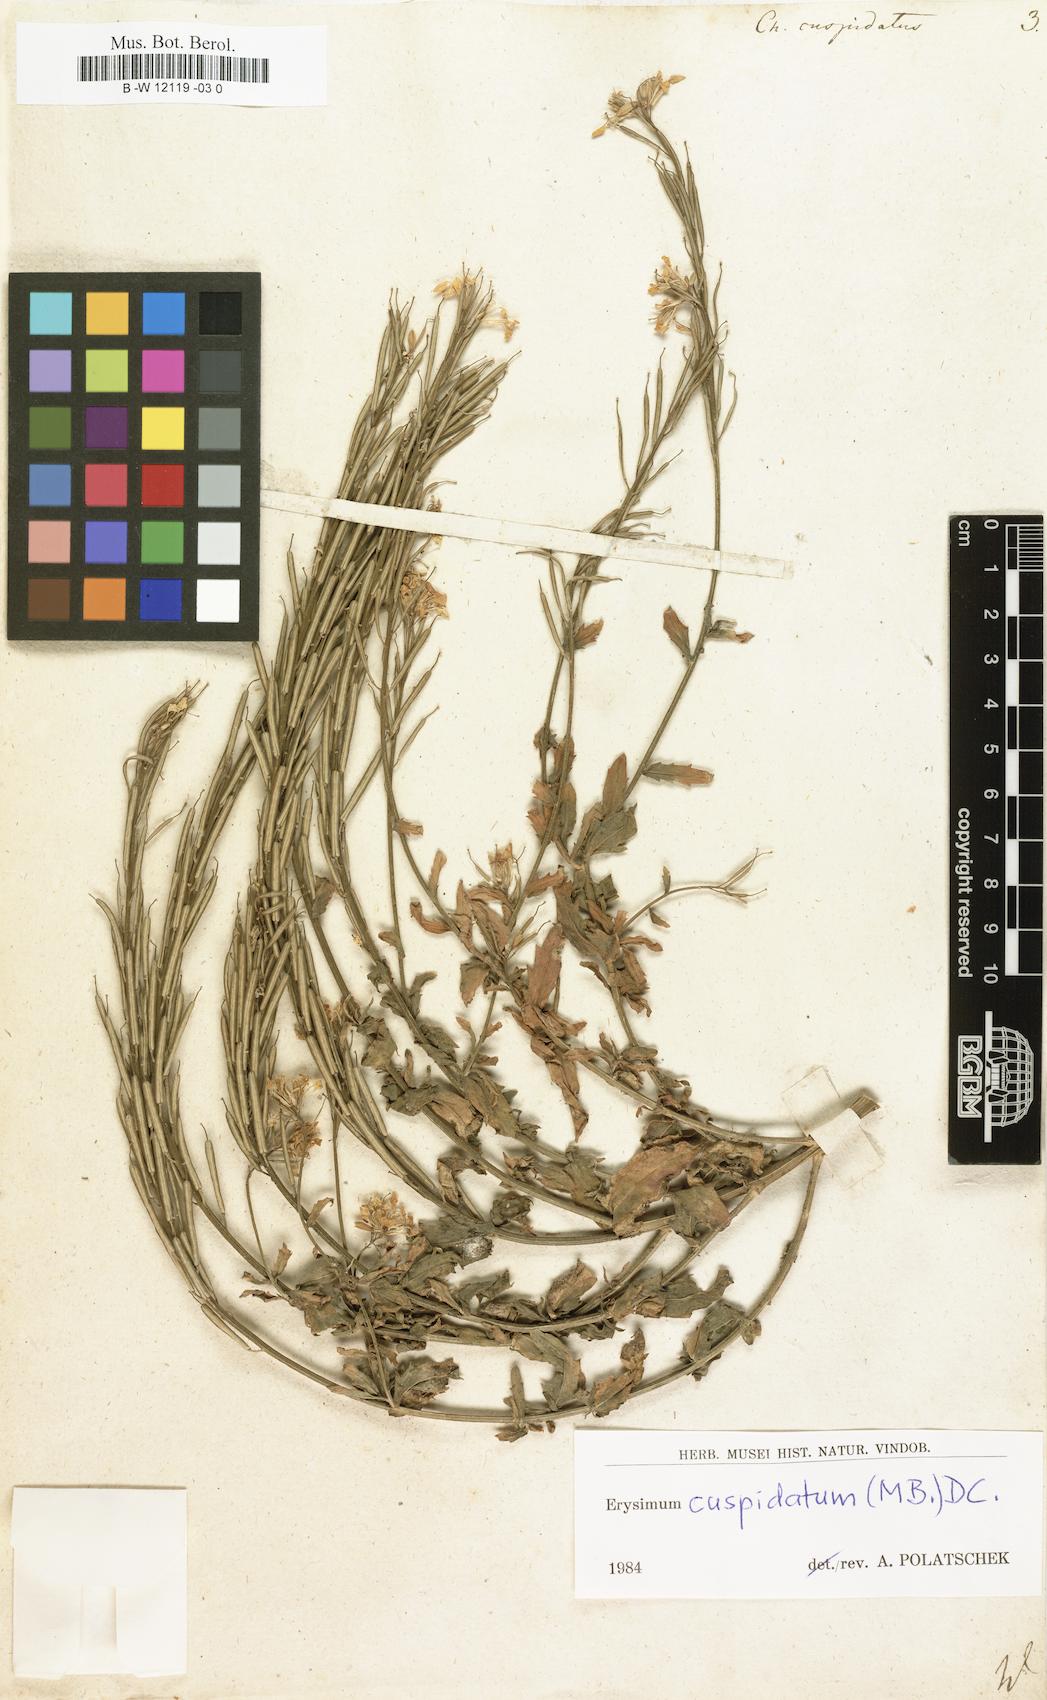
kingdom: Plantae
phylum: Tracheophyta
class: Magnoliopsida
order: Brassicales
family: Brassicaceae
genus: Erysimum
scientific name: Erysimum cuspidatum
